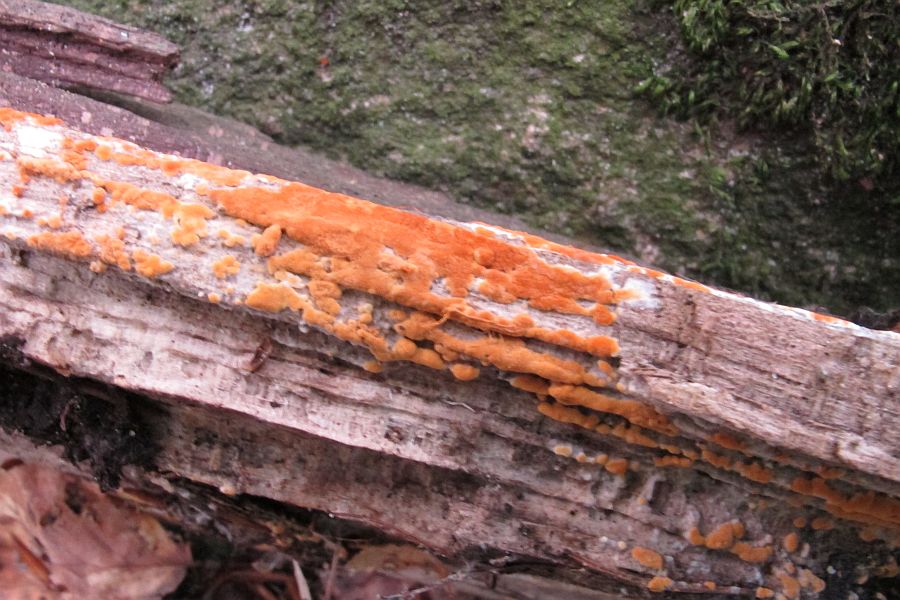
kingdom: Fungi
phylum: Basidiomycota
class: Agaricomycetes
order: Cantharellales
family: Botryobasidiaceae
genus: Botryobasidium
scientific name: Botryobasidium aureum
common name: gylden spindhinde
